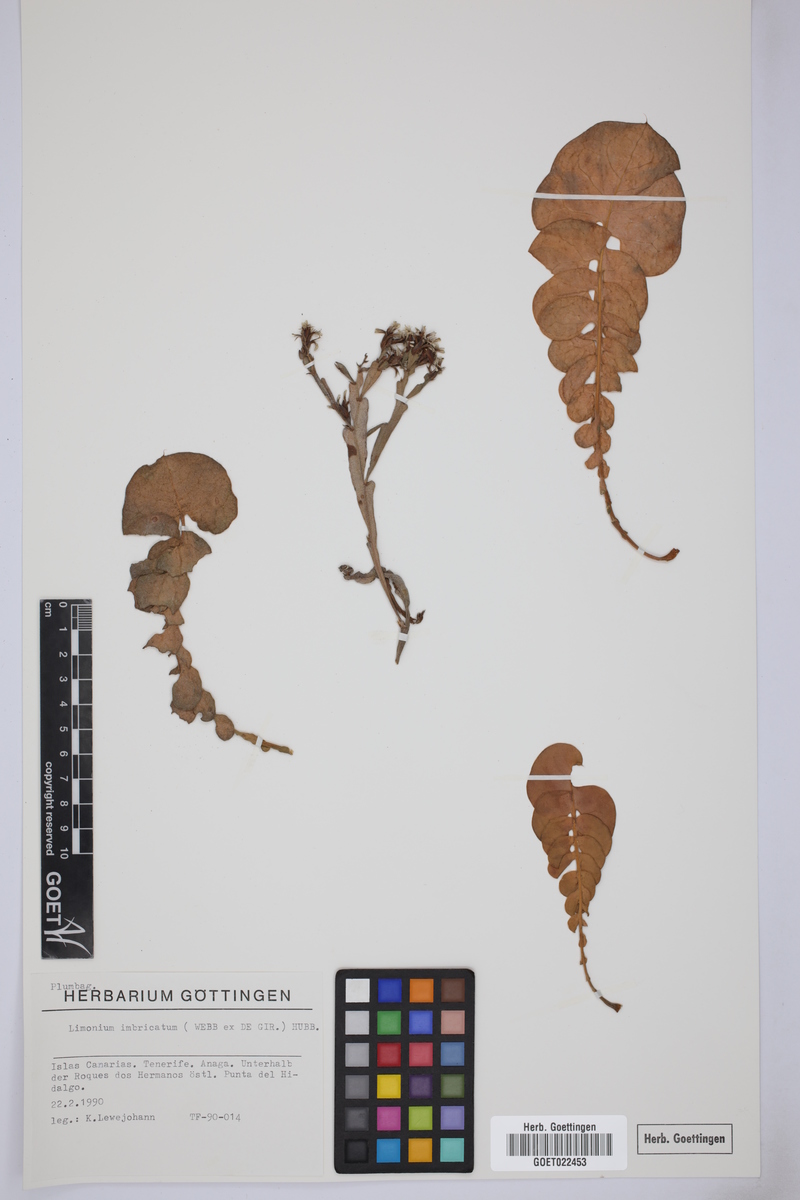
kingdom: Plantae
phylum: Tracheophyta
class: Magnoliopsida
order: Caryophyllales
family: Plumbaginaceae
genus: Limonium
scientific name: Limonium imbricatum
